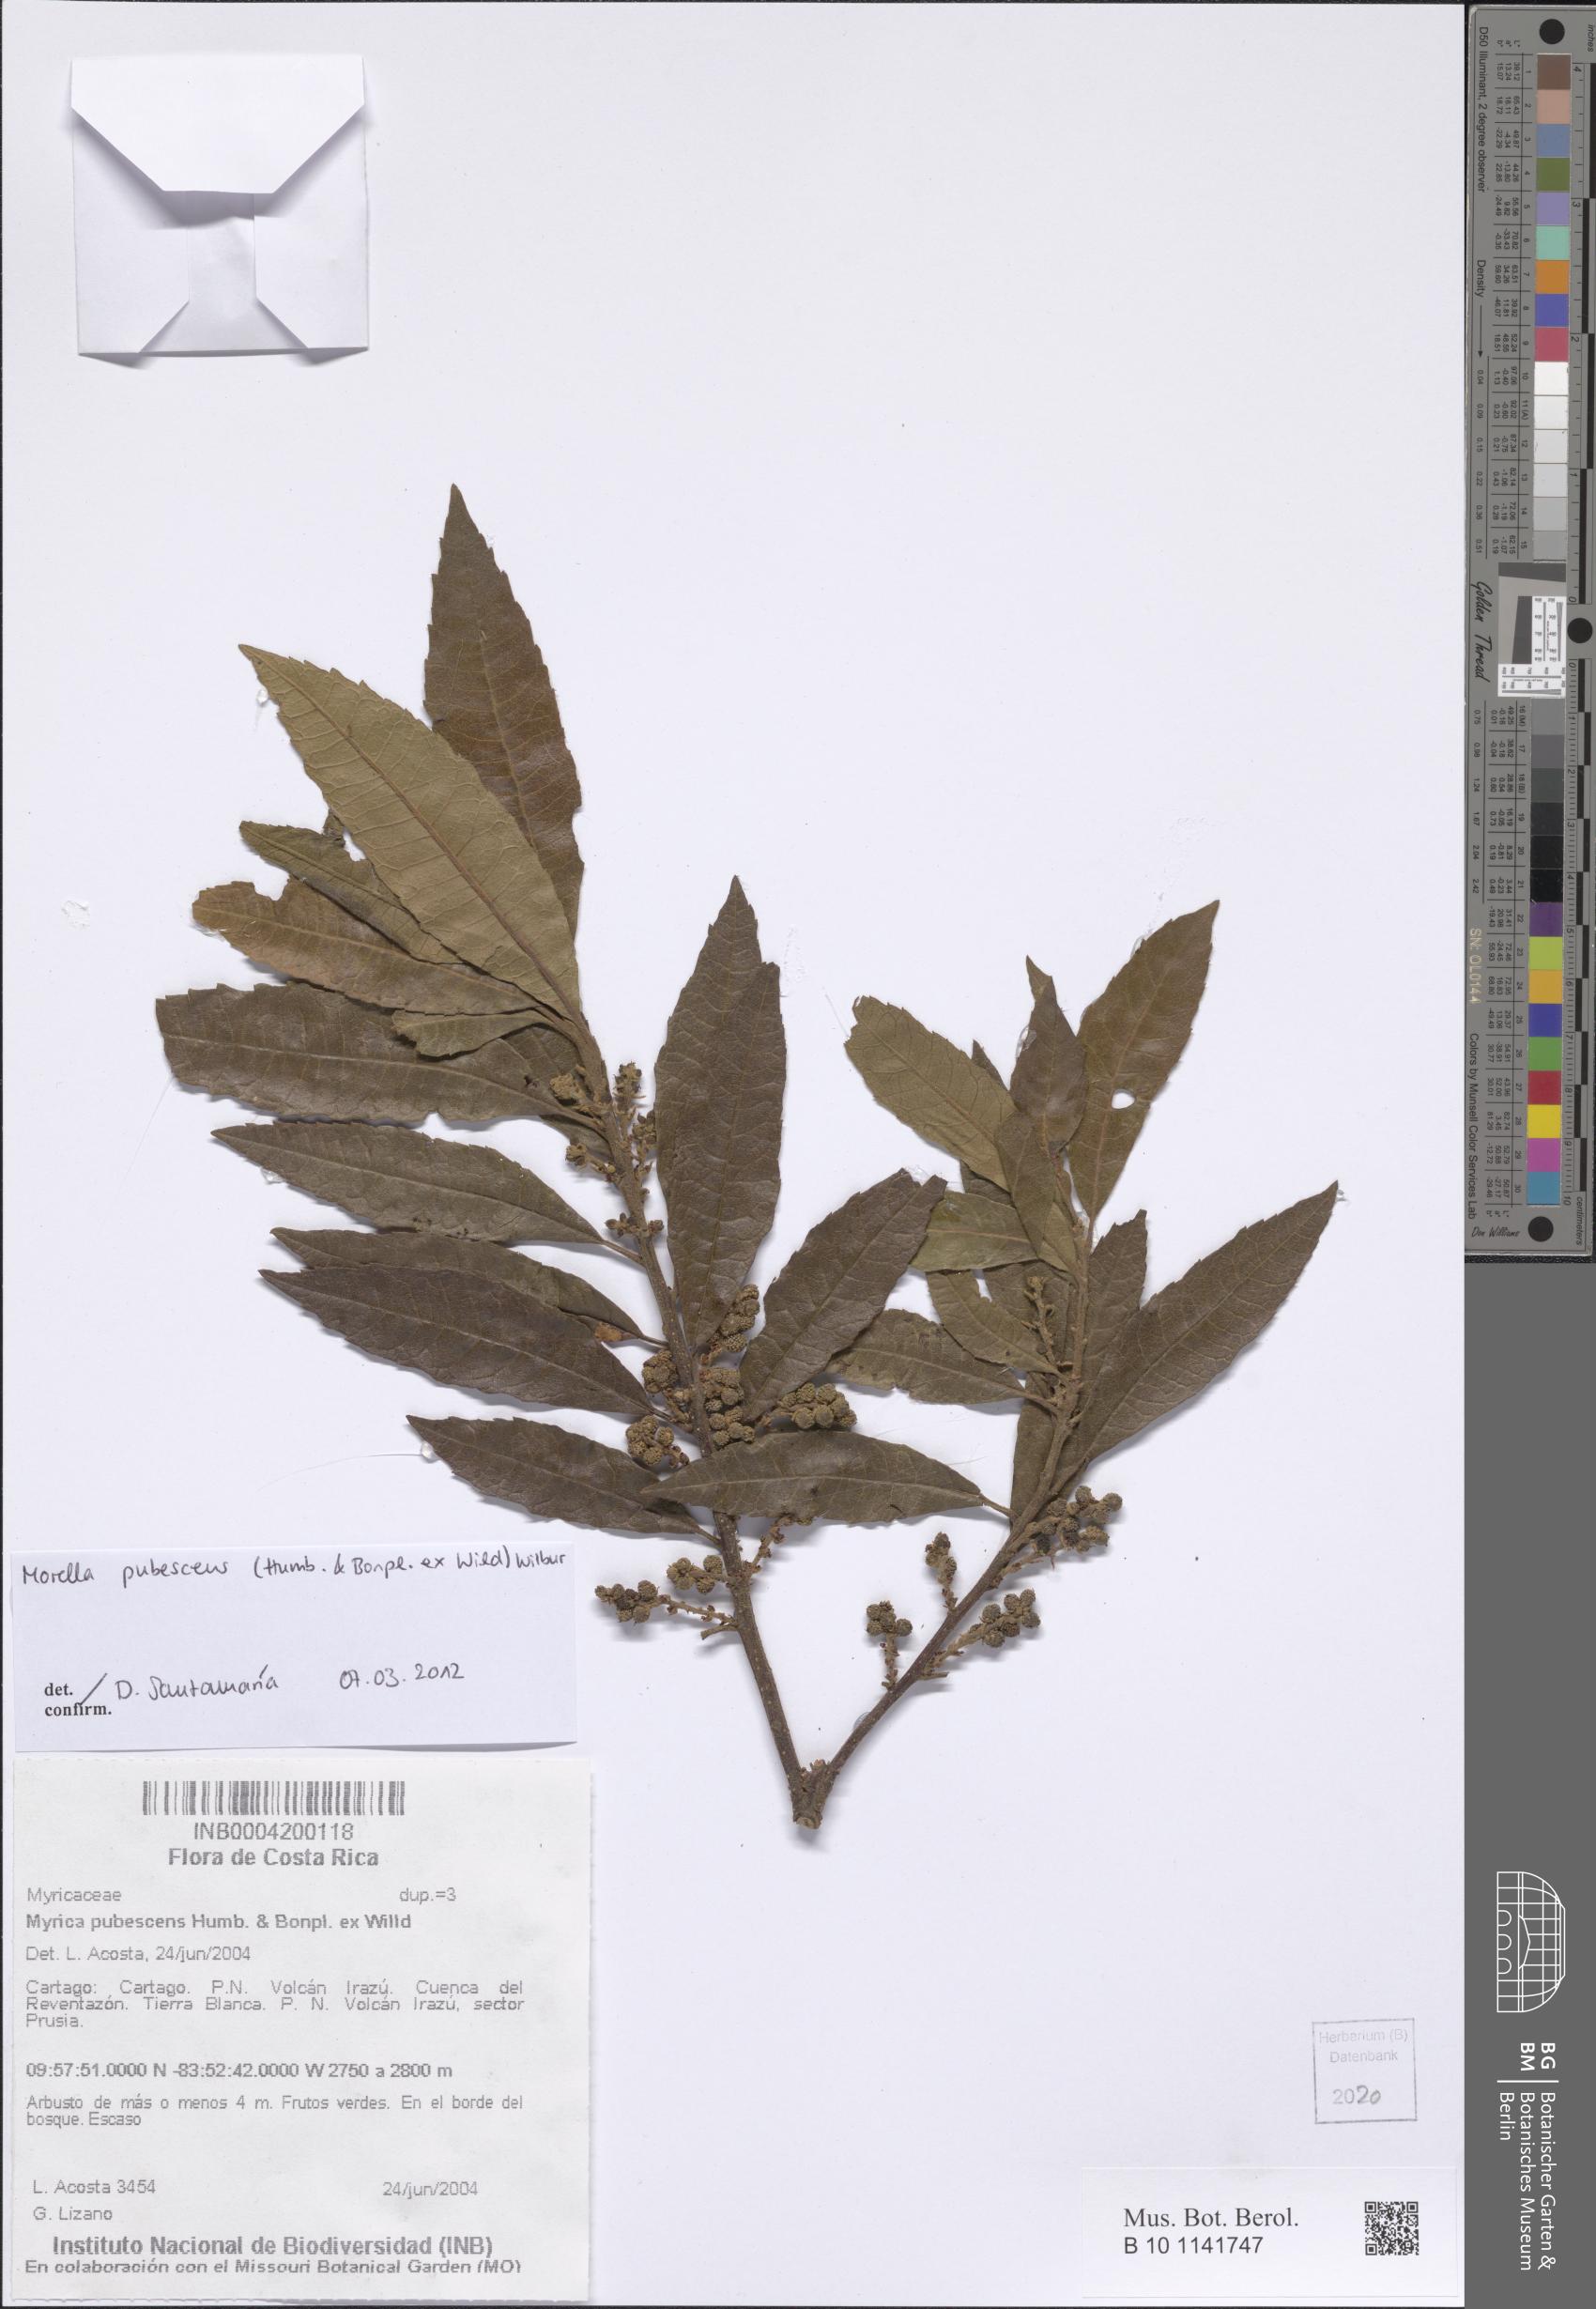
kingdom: Plantae
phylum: Tracheophyta
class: Magnoliopsida
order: Fagales
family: Myricaceae
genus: Morella
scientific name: Morella pubescens
